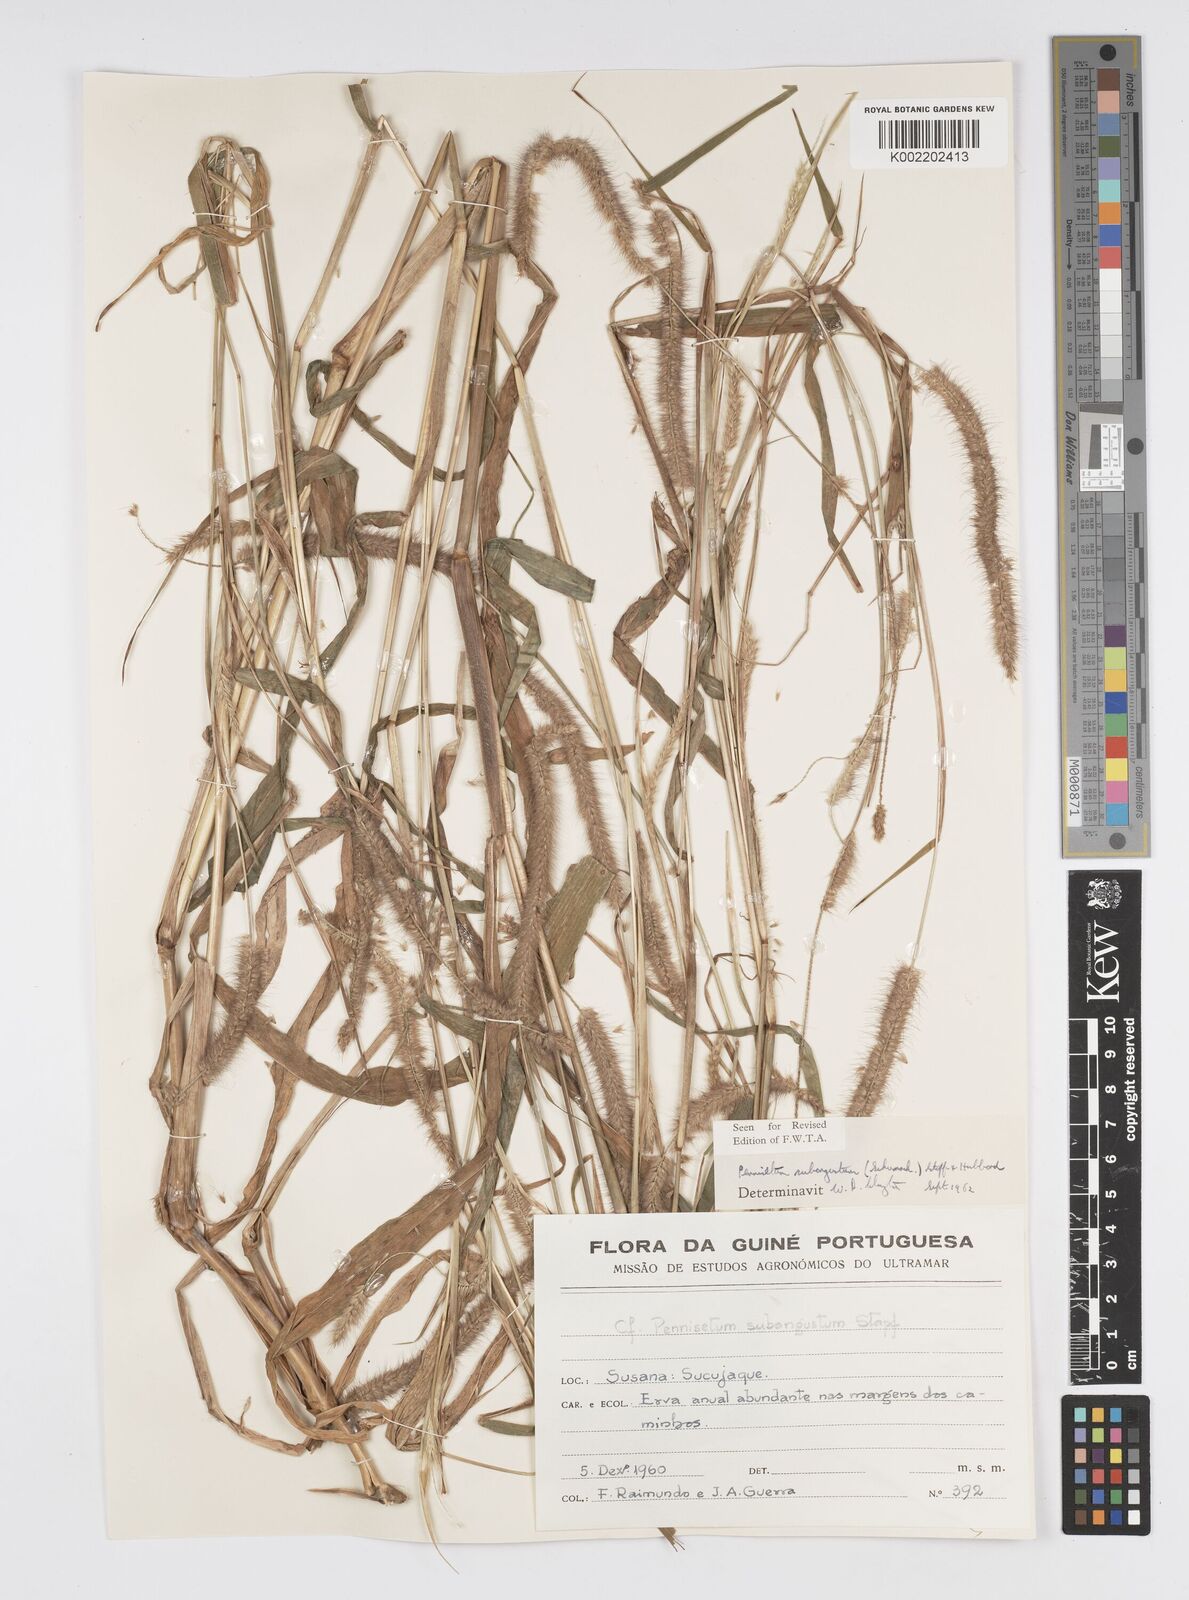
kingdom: Plantae
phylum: Tracheophyta
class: Liliopsida
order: Poales
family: Poaceae
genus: Setaria
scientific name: Setaria parviflora
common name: Knotroot bristle-grass
